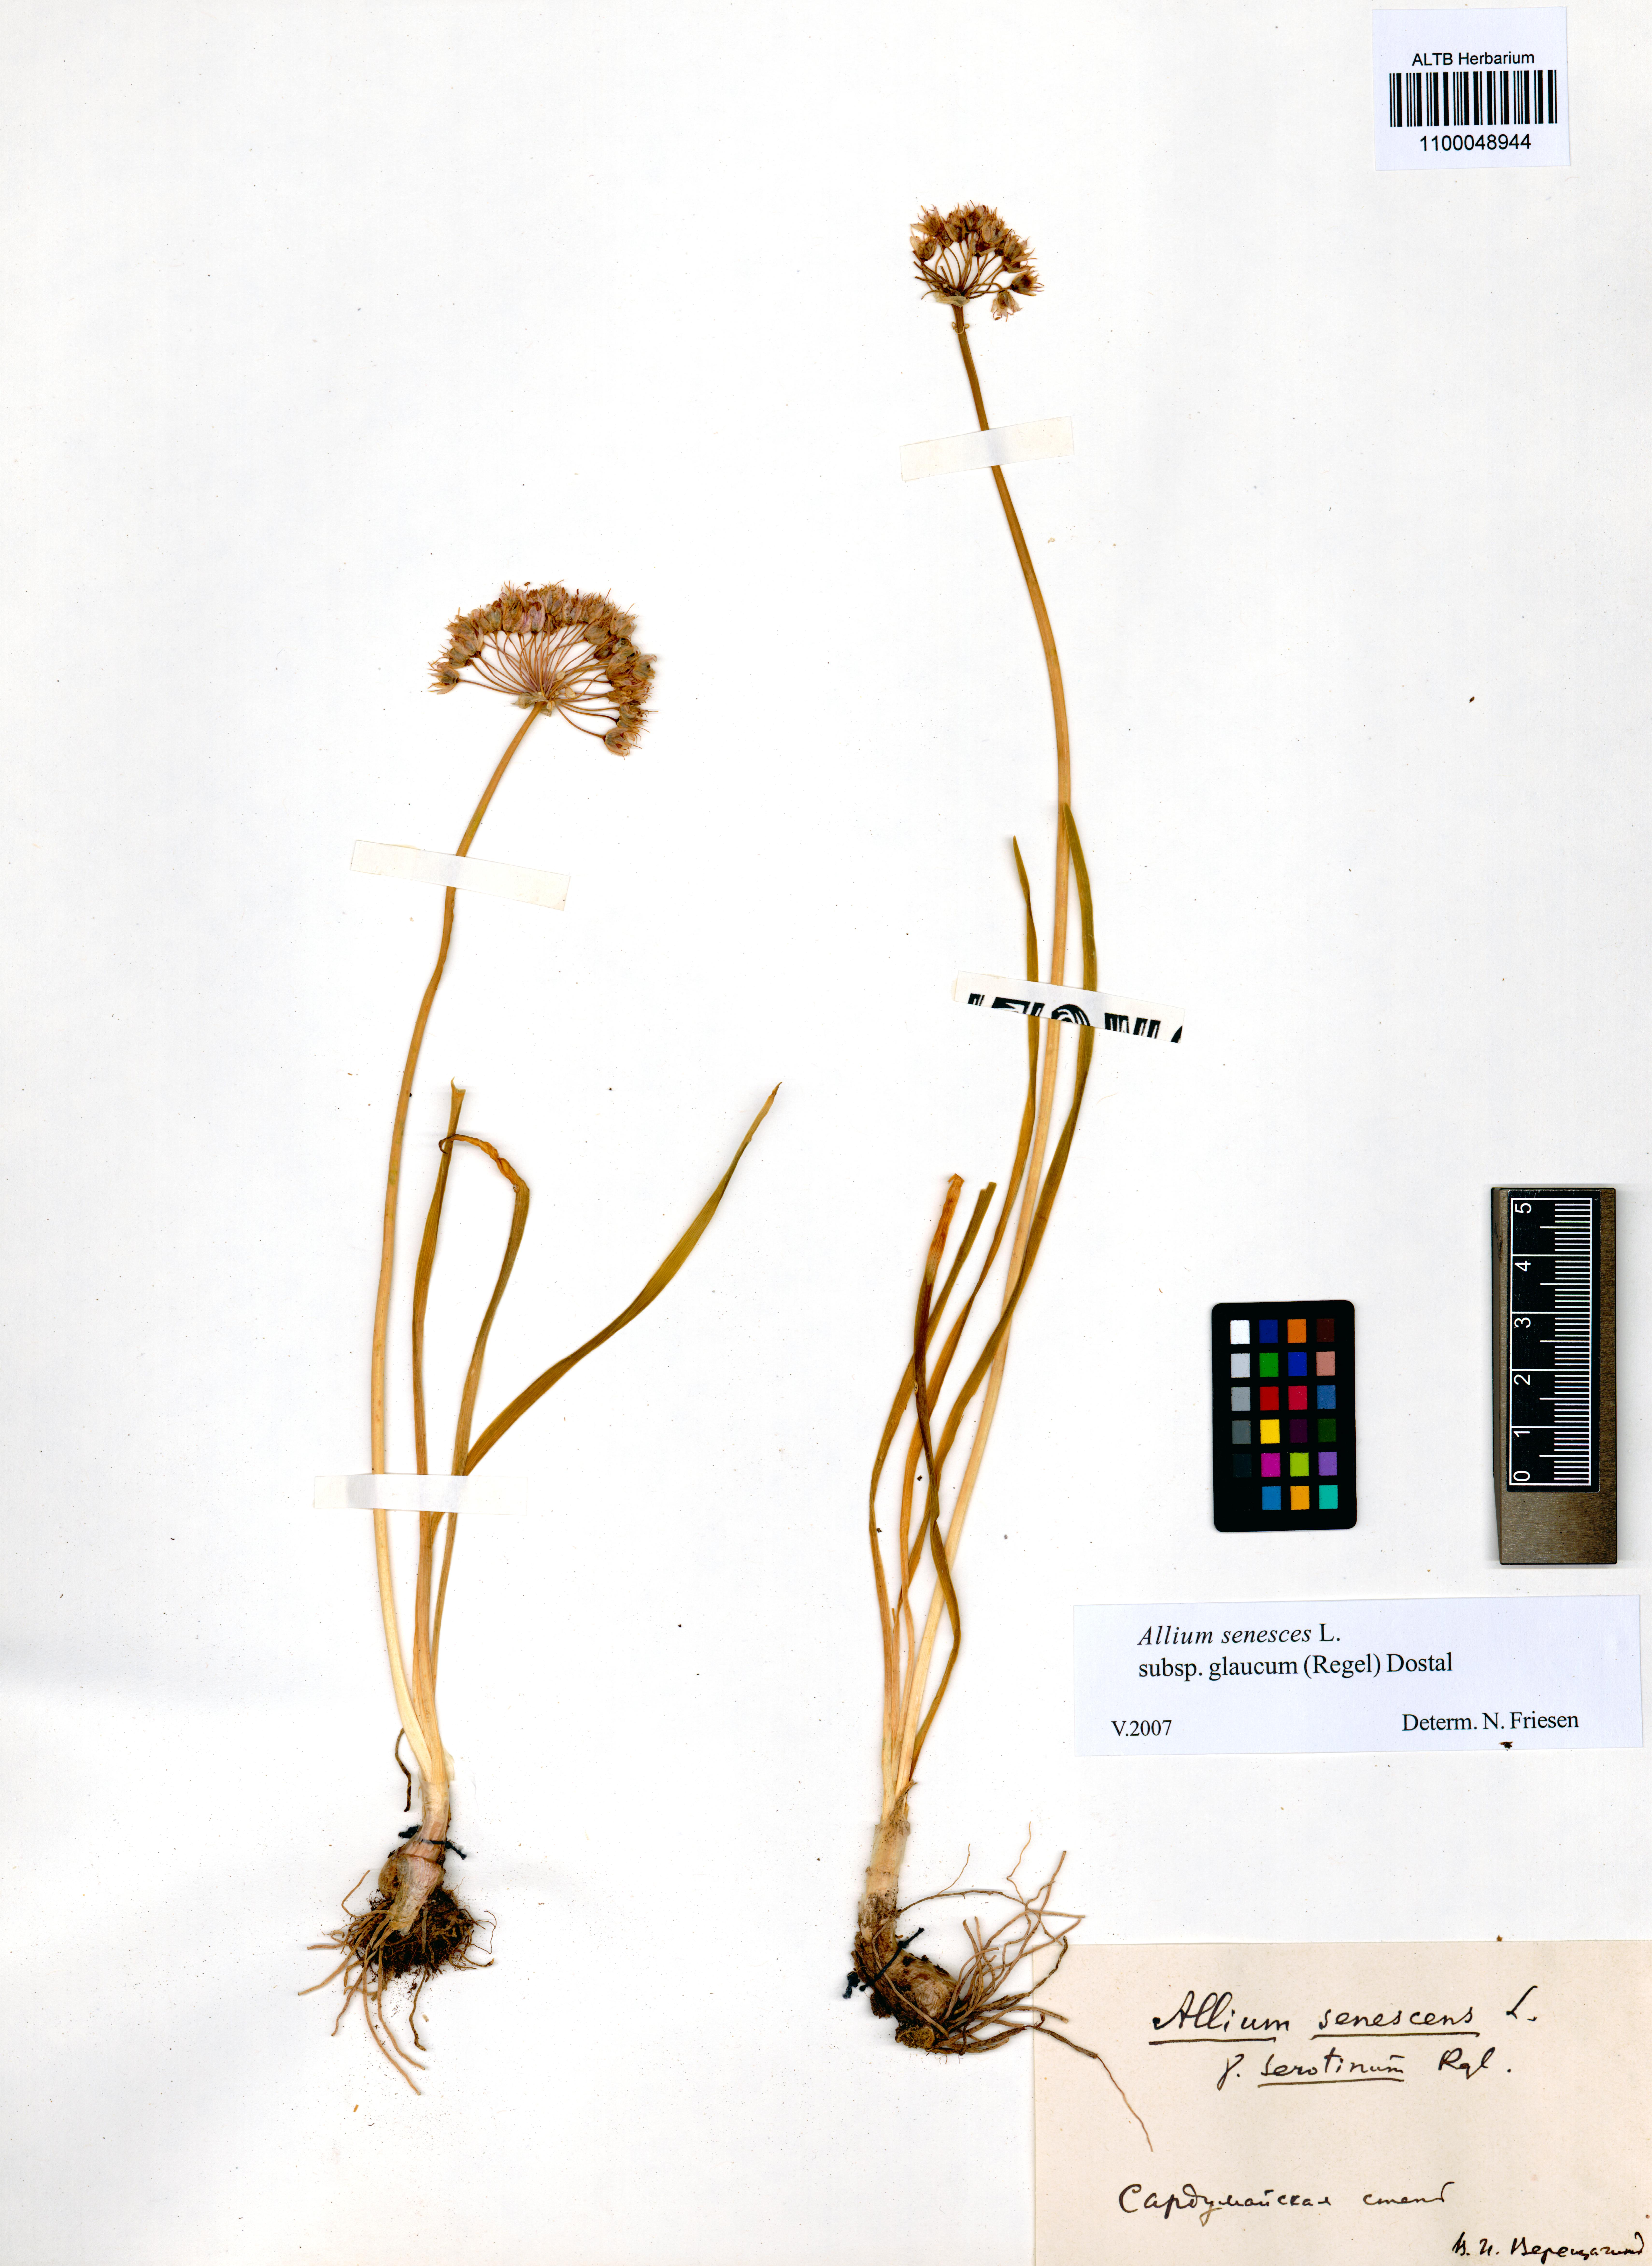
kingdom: Plantae
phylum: Tracheophyta
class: Liliopsida
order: Asparagales
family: Amaryllidaceae
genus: Allium
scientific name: Allium senescens
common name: German garlic
